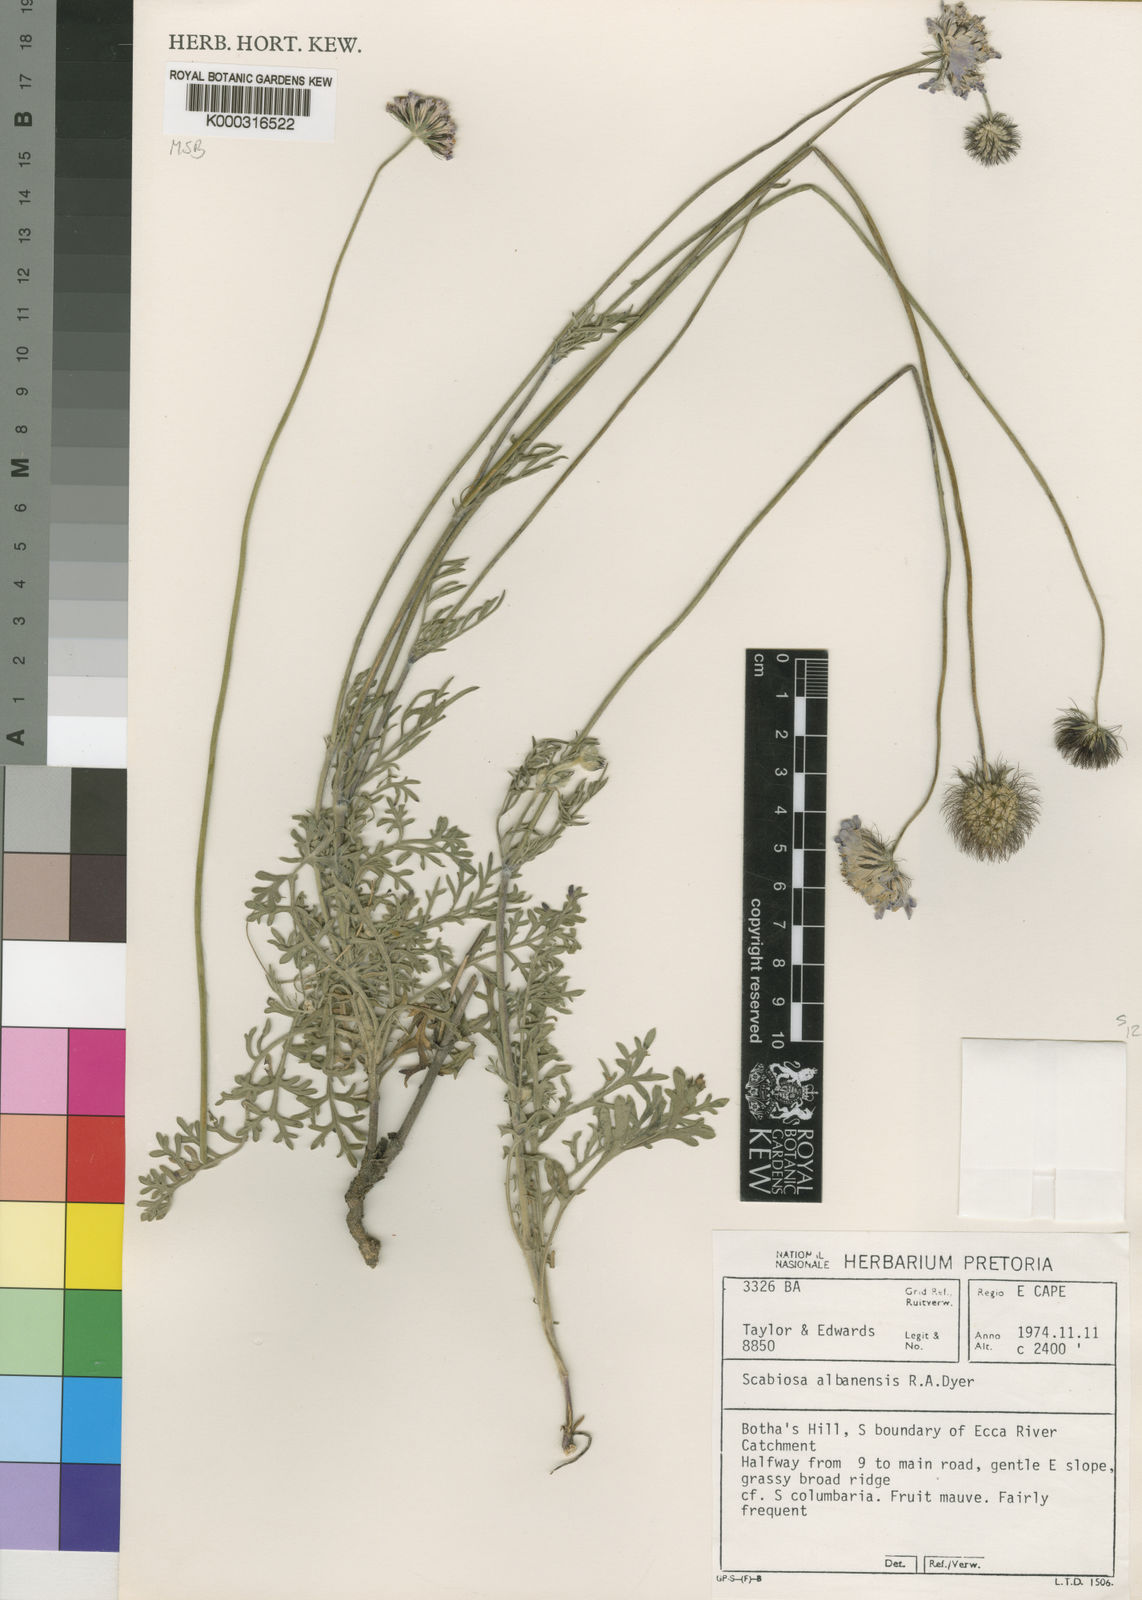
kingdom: Plantae
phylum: Tracheophyta
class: Magnoliopsida
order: Dipsacales
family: Caprifoliaceae
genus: Scabiosa
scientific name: Scabiosa albanensis
